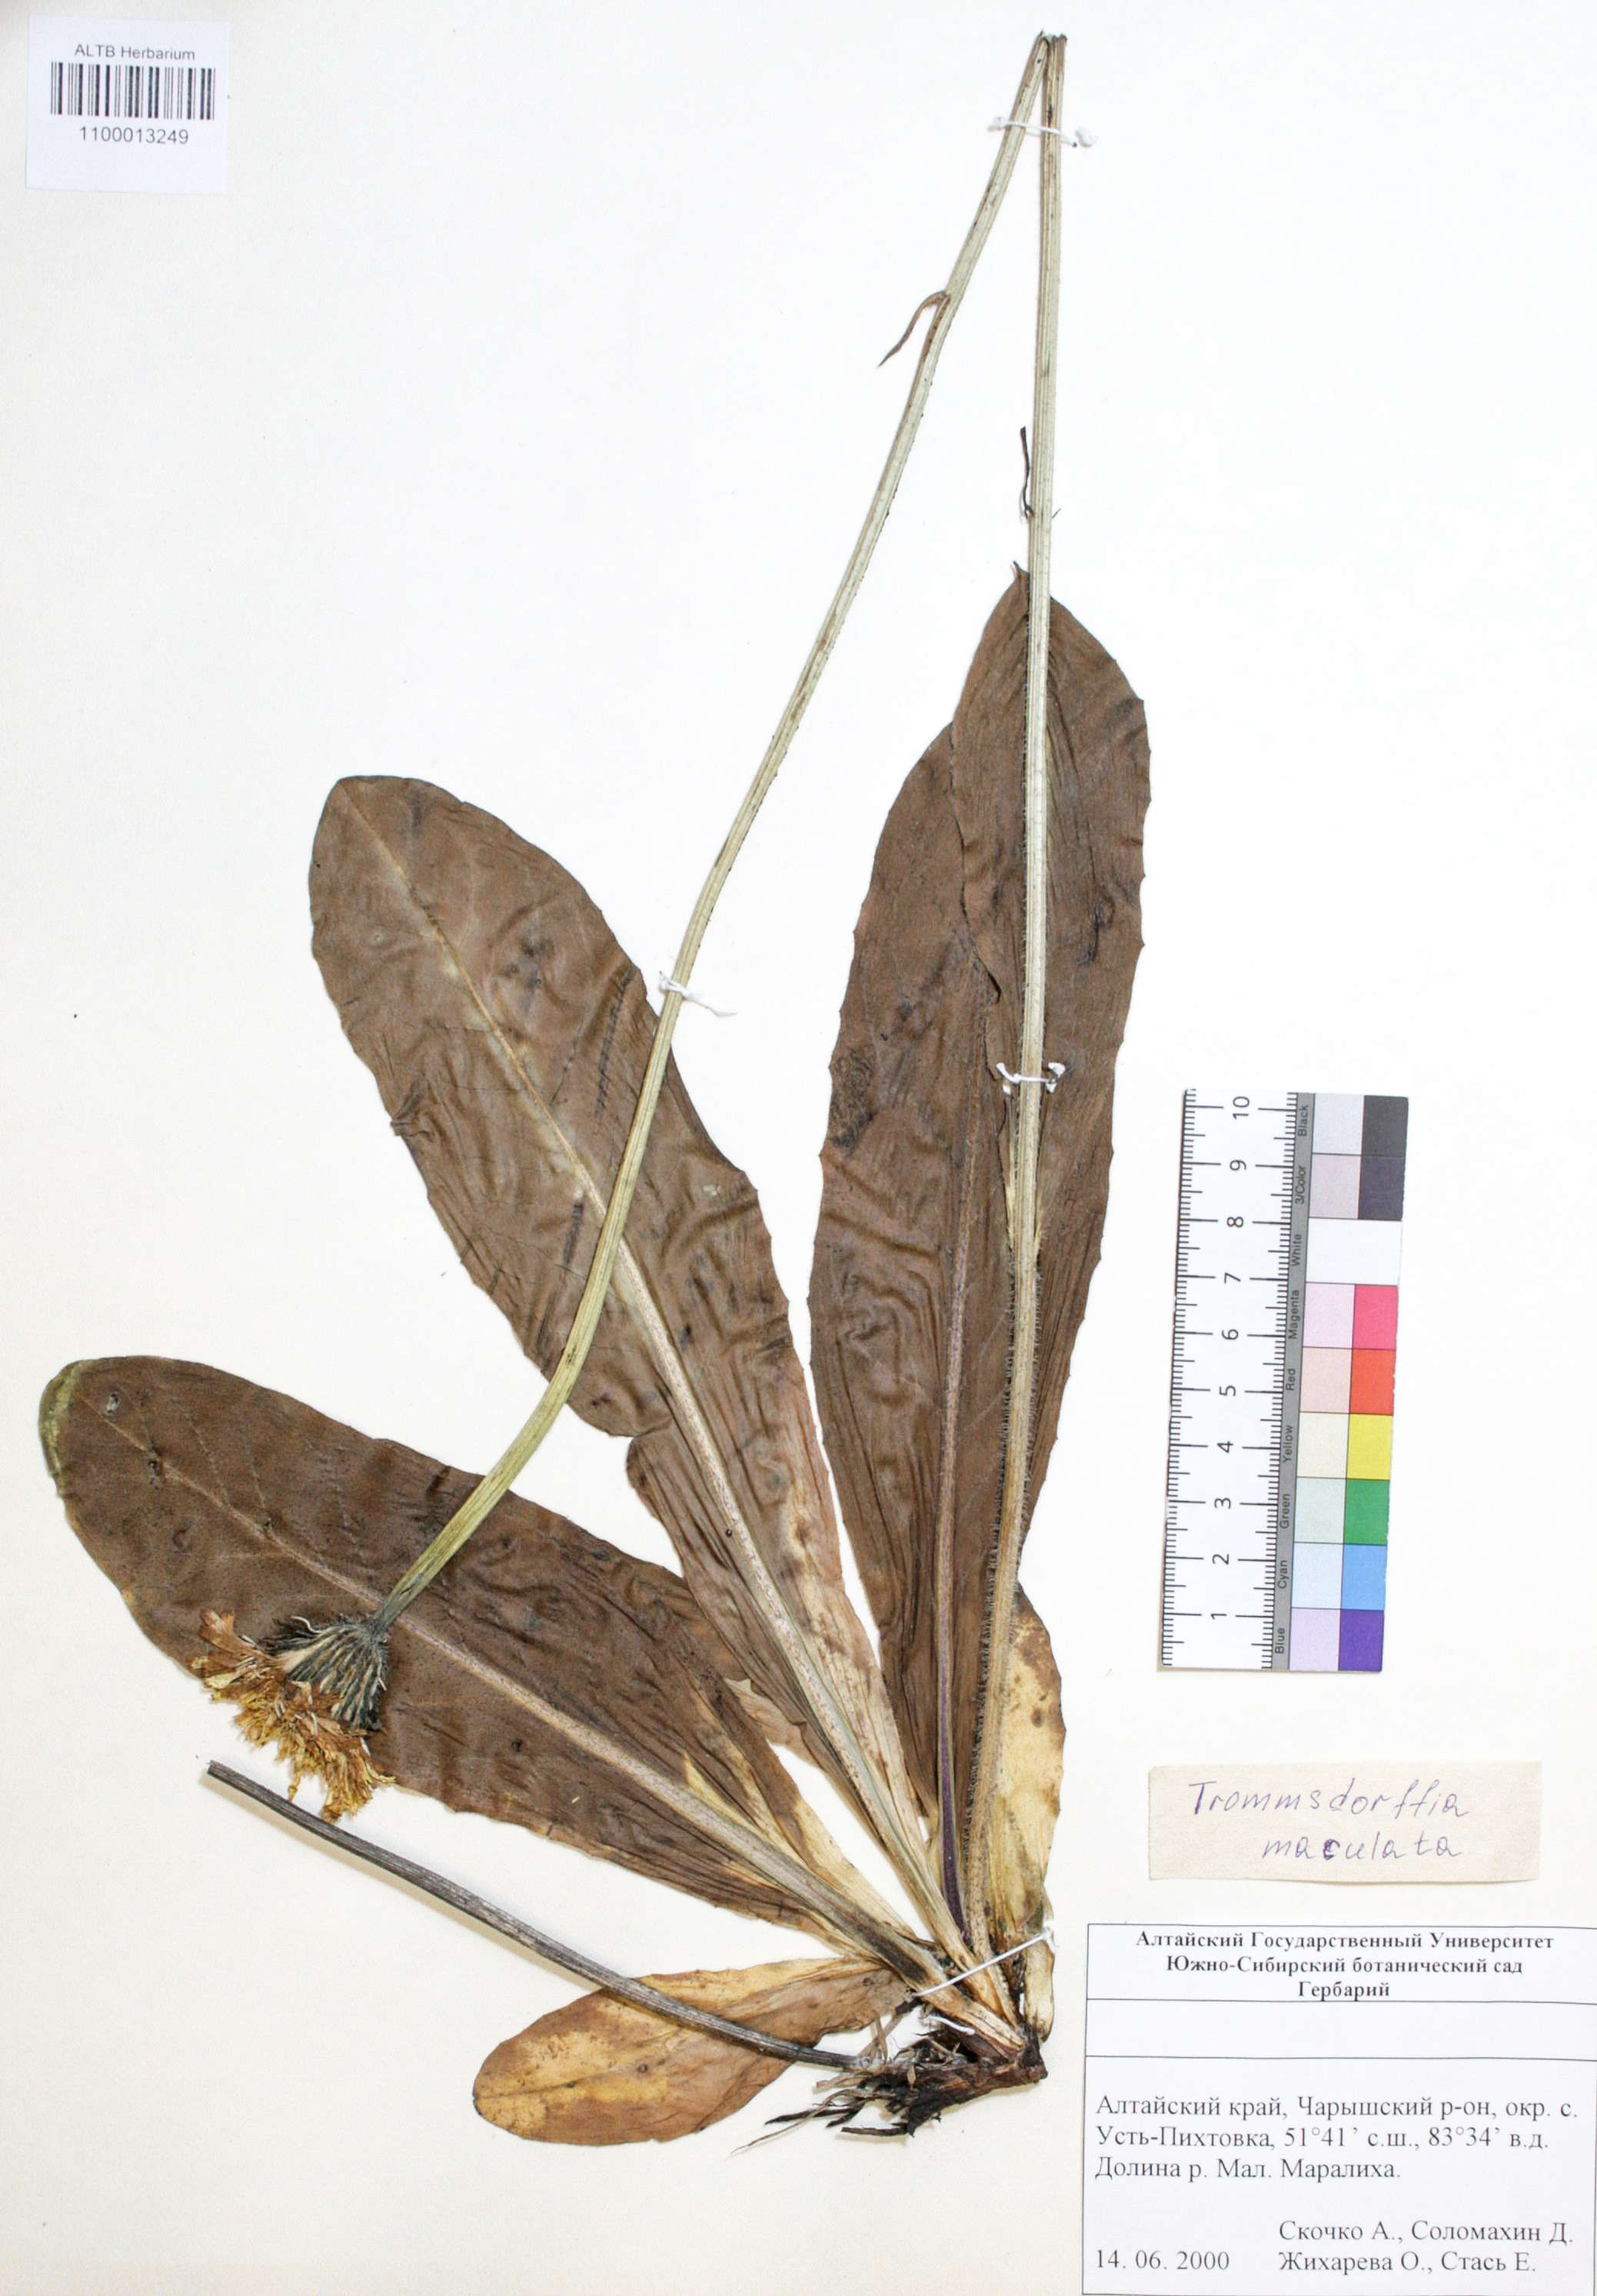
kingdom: Plantae
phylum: Tracheophyta
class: Magnoliopsida
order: Asterales
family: Asteraceae
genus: Trommsdorffia
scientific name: Trommsdorffia maculata
